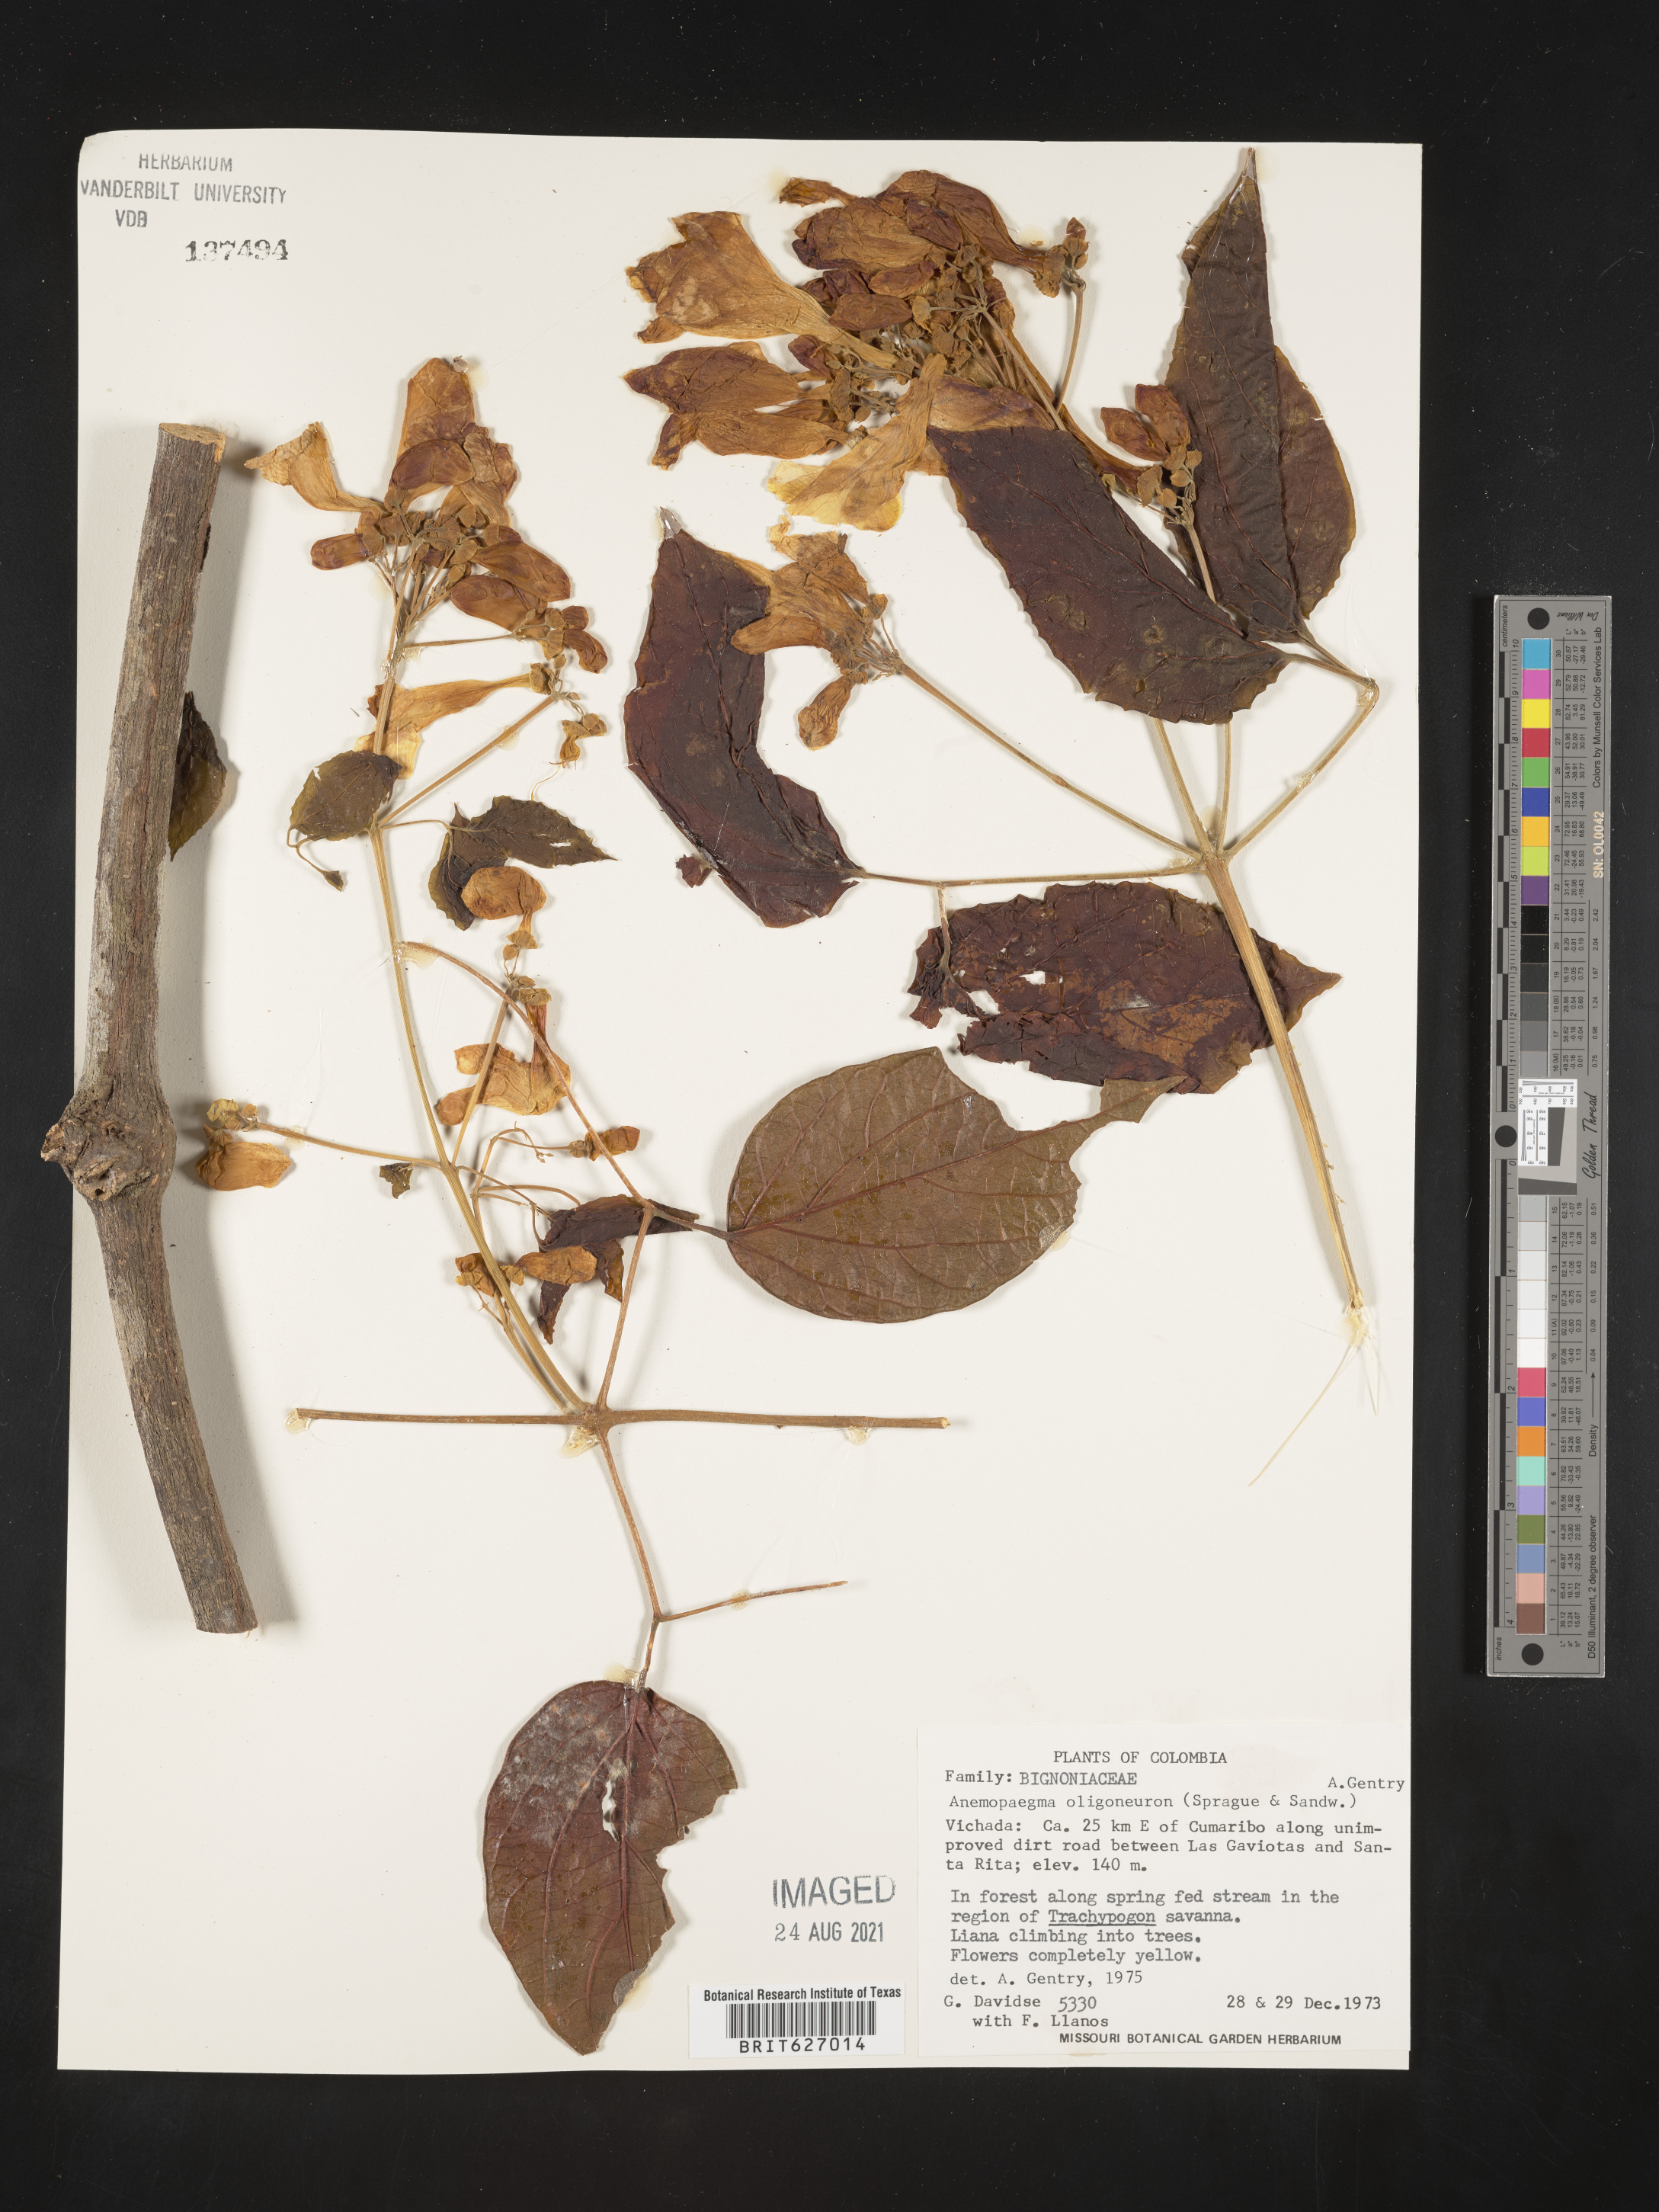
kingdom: Plantae
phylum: Tracheophyta
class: Magnoliopsida
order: Lamiales
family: Bignoniaceae
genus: Anemopaegma
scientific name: Anemopaegma oligoneuron
